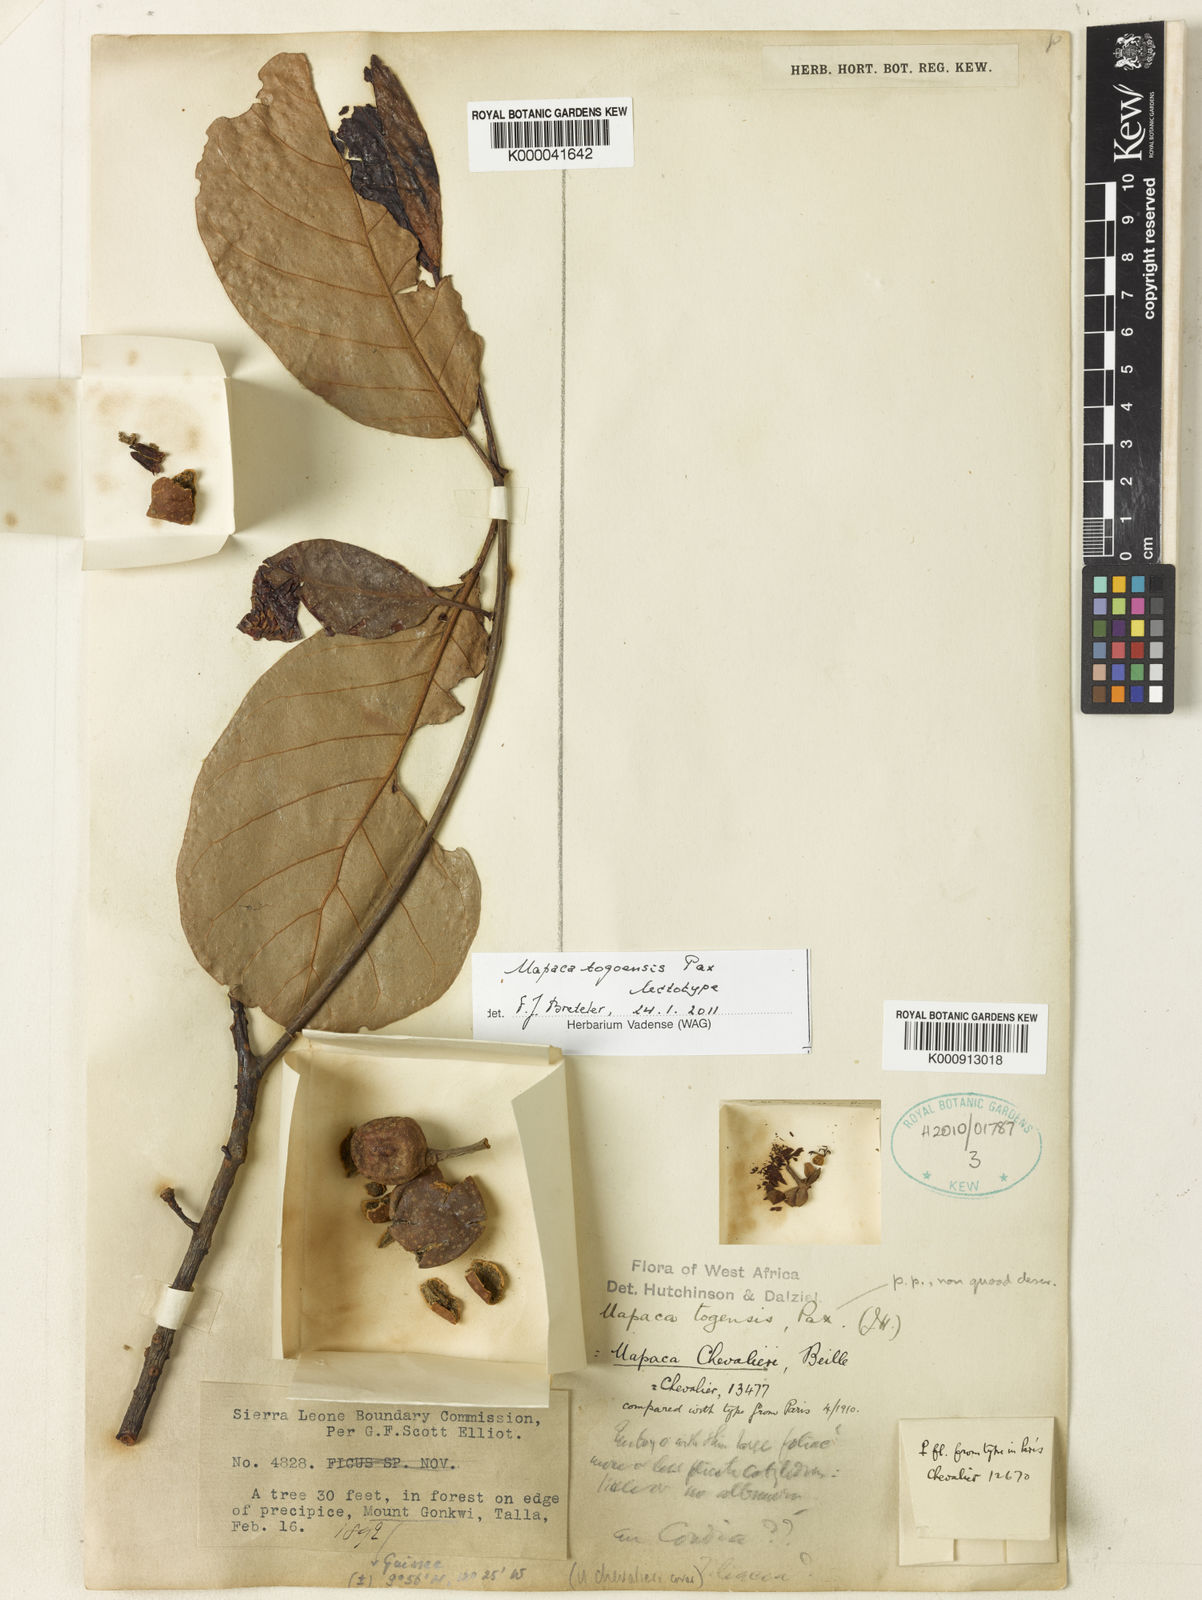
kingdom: Plantae
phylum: Tracheophyta
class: Magnoliopsida
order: Malpighiales
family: Phyllanthaceae
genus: Uapaca
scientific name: Uapaca togoensis
